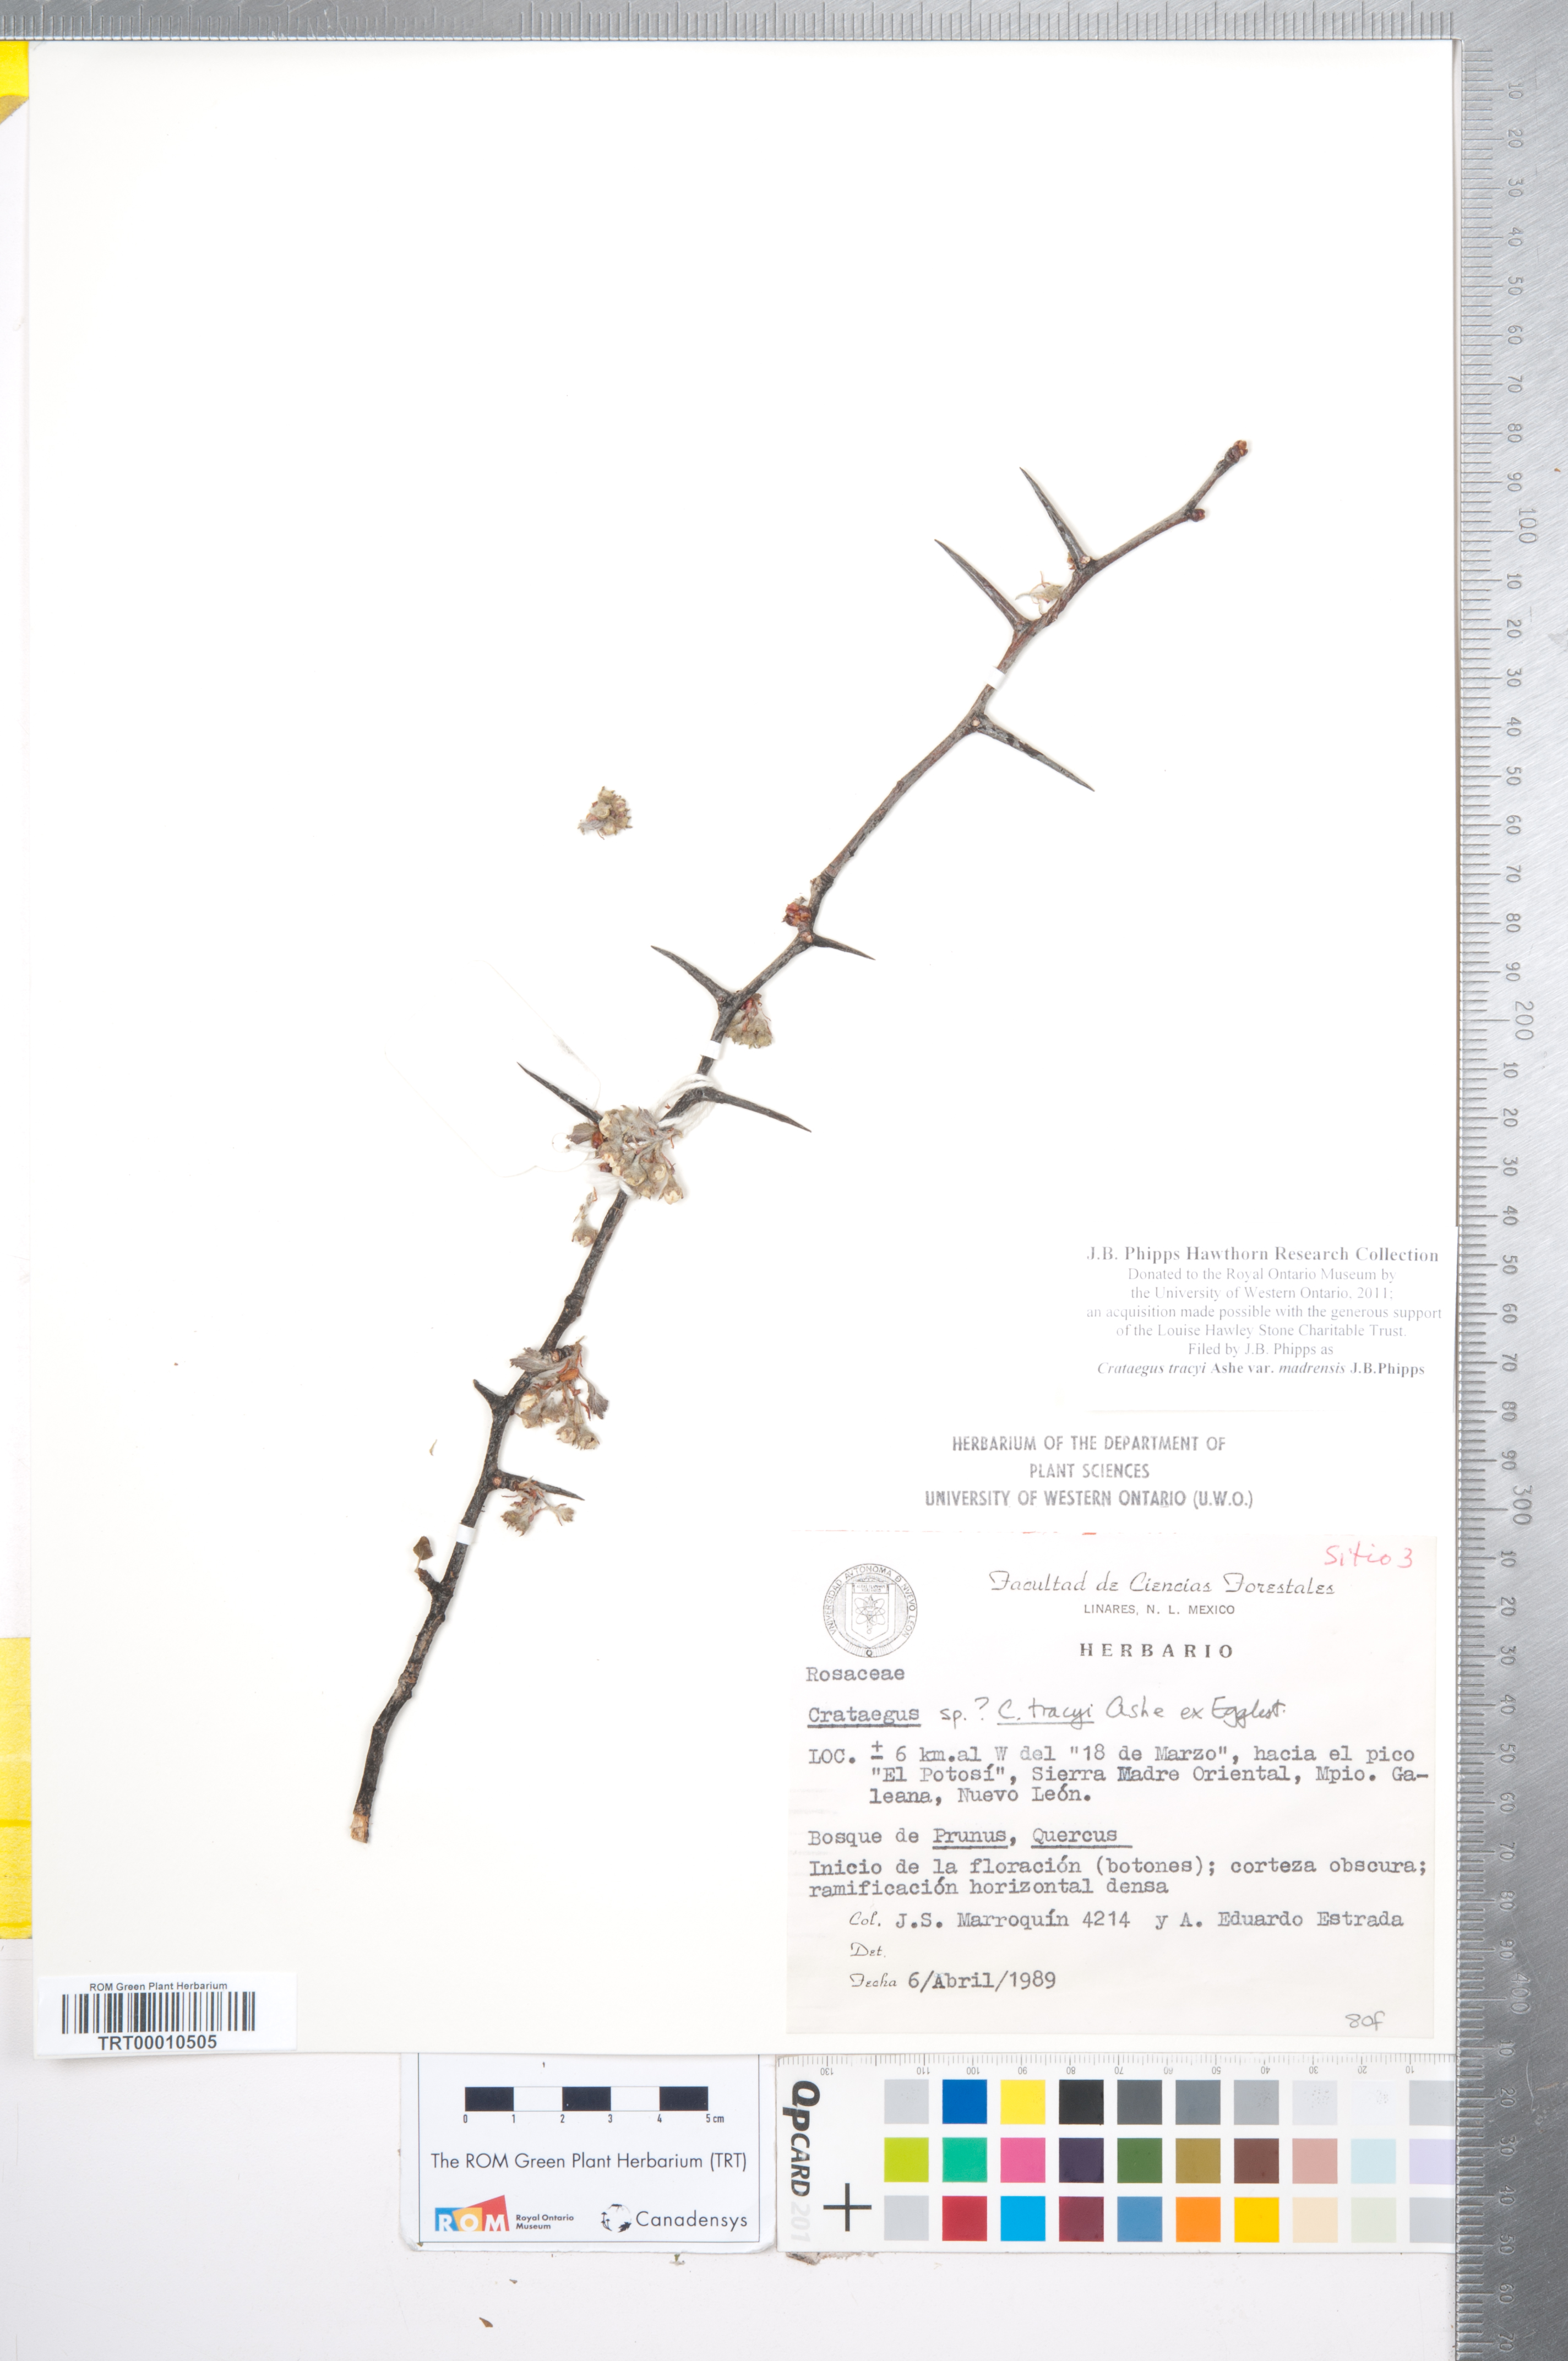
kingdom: Plantae
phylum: Tracheophyta
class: Magnoliopsida
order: Rosales
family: Rosaceae
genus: Crataegus
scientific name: Crataegus tracyi
